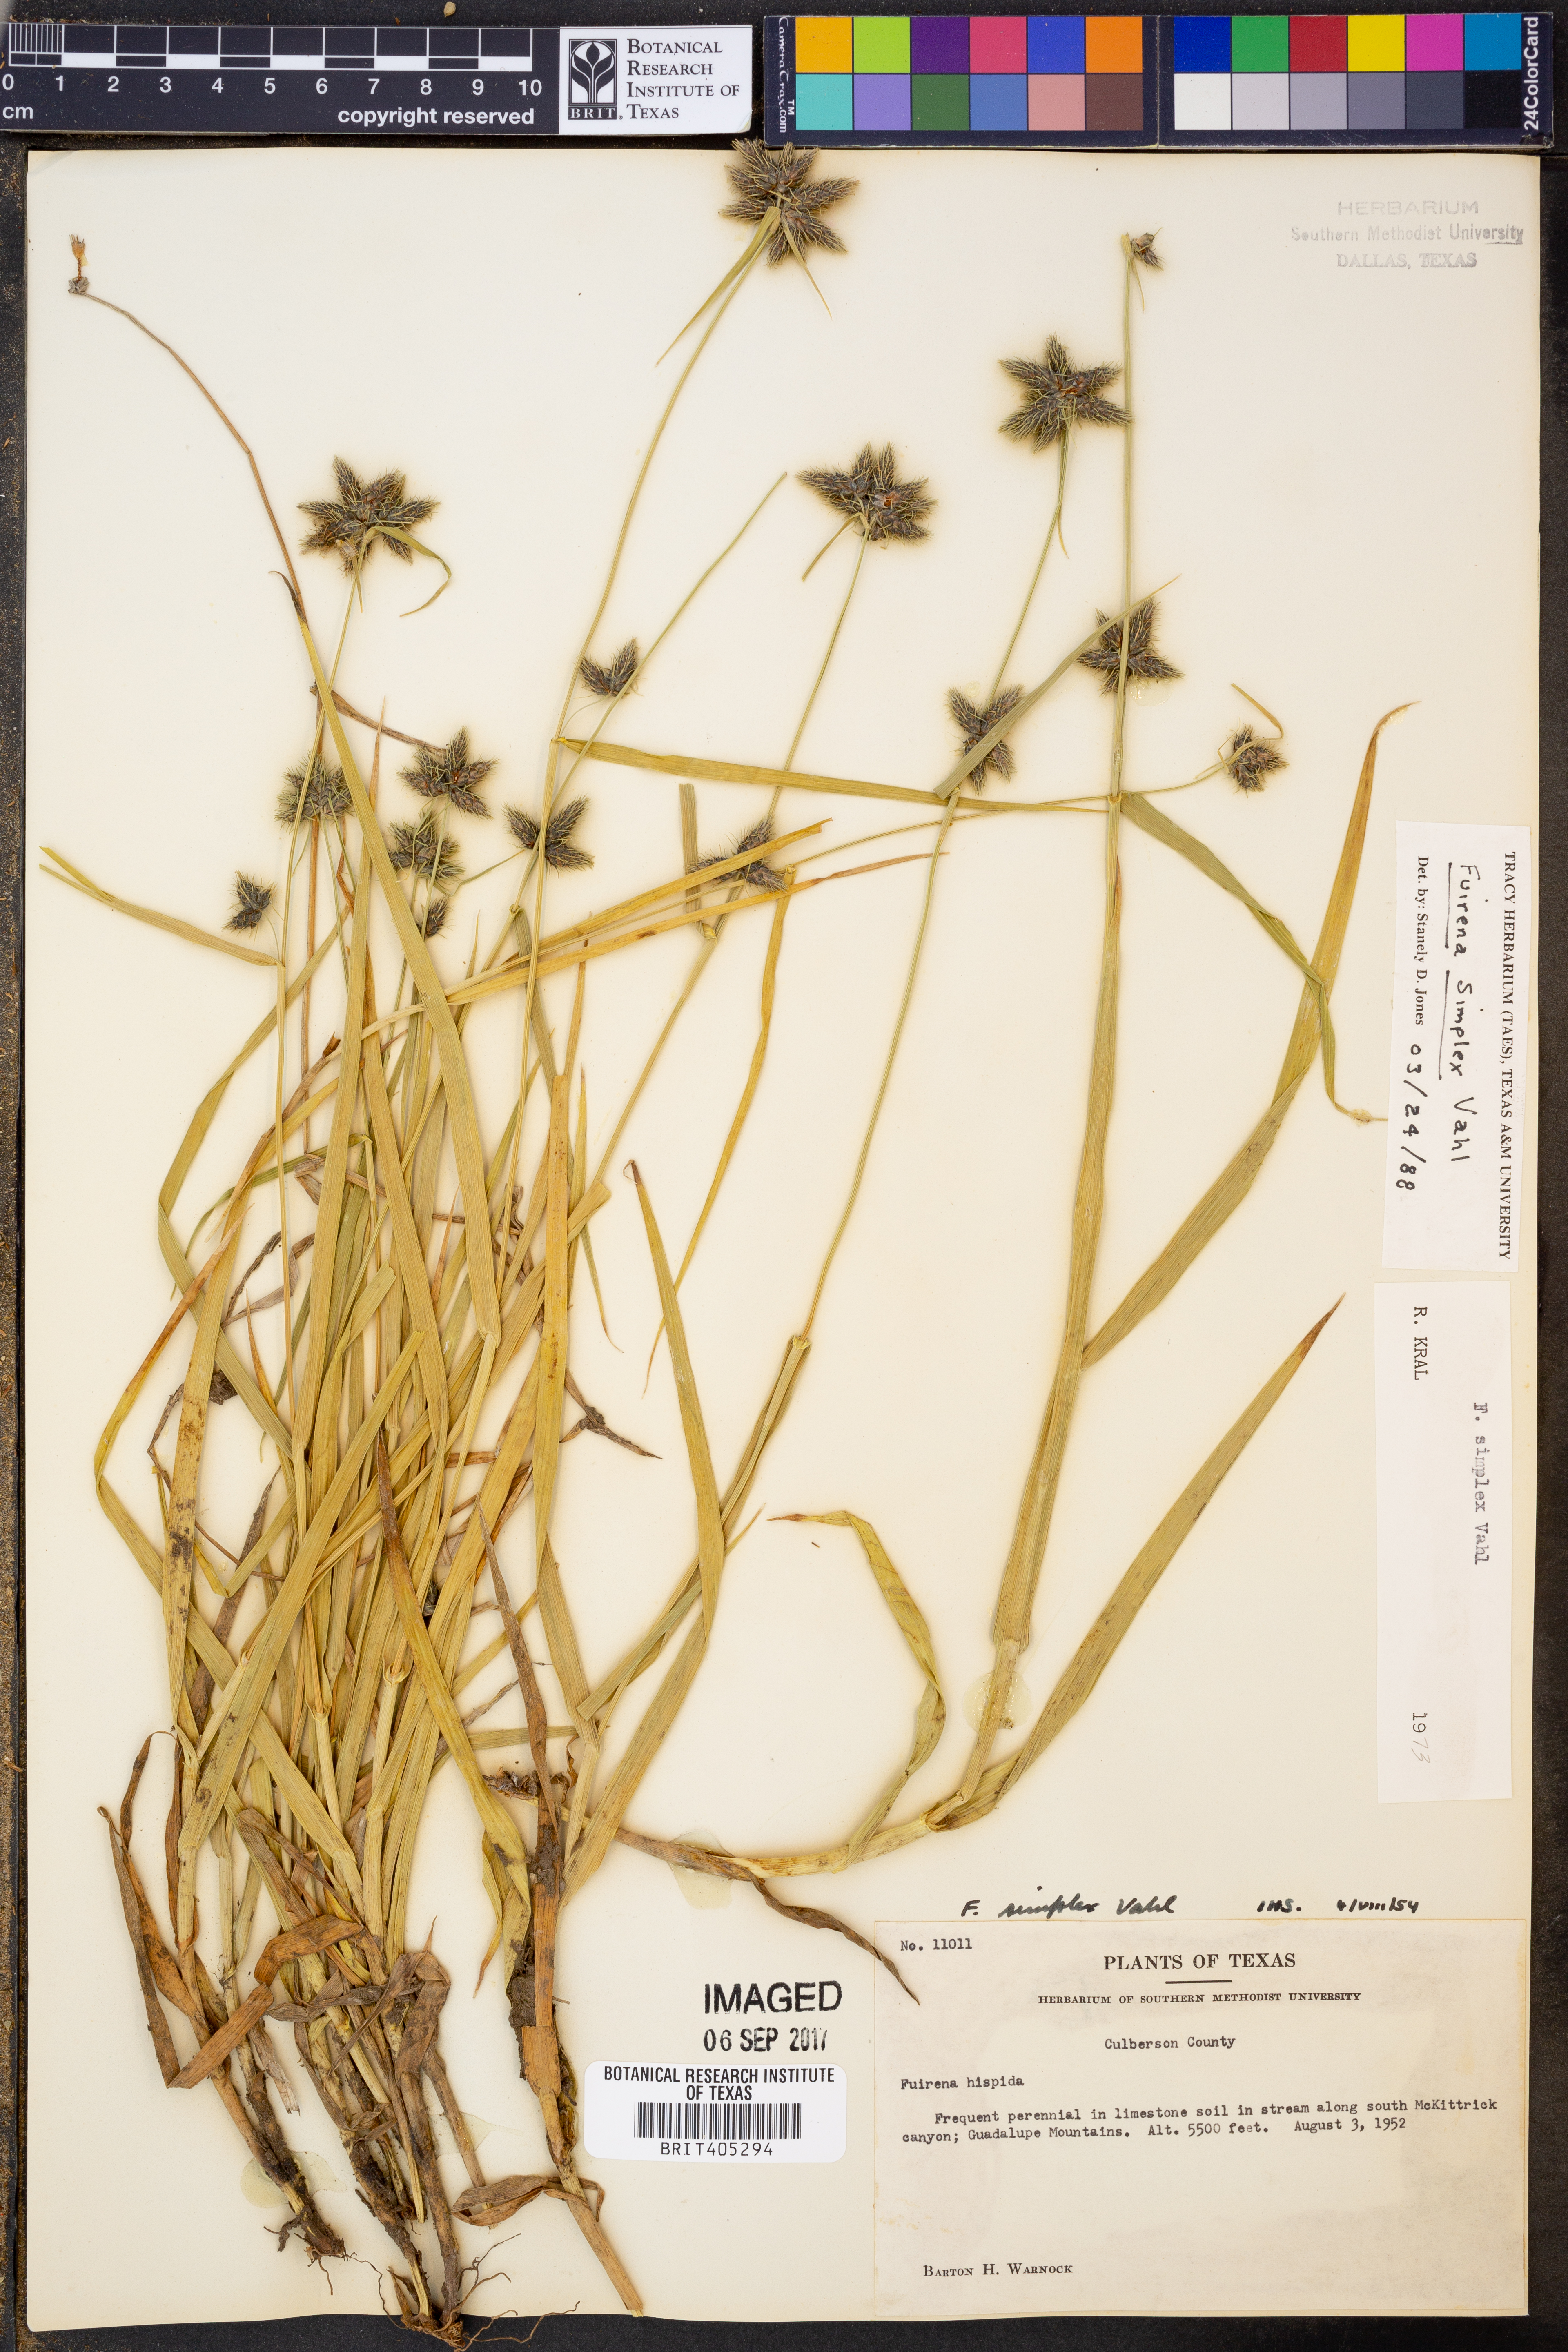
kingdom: Plantae
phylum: Tracheophyta
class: Liliopsida
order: Poales
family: Cyperaceae
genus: Fuirena
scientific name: Fuirena simplex
